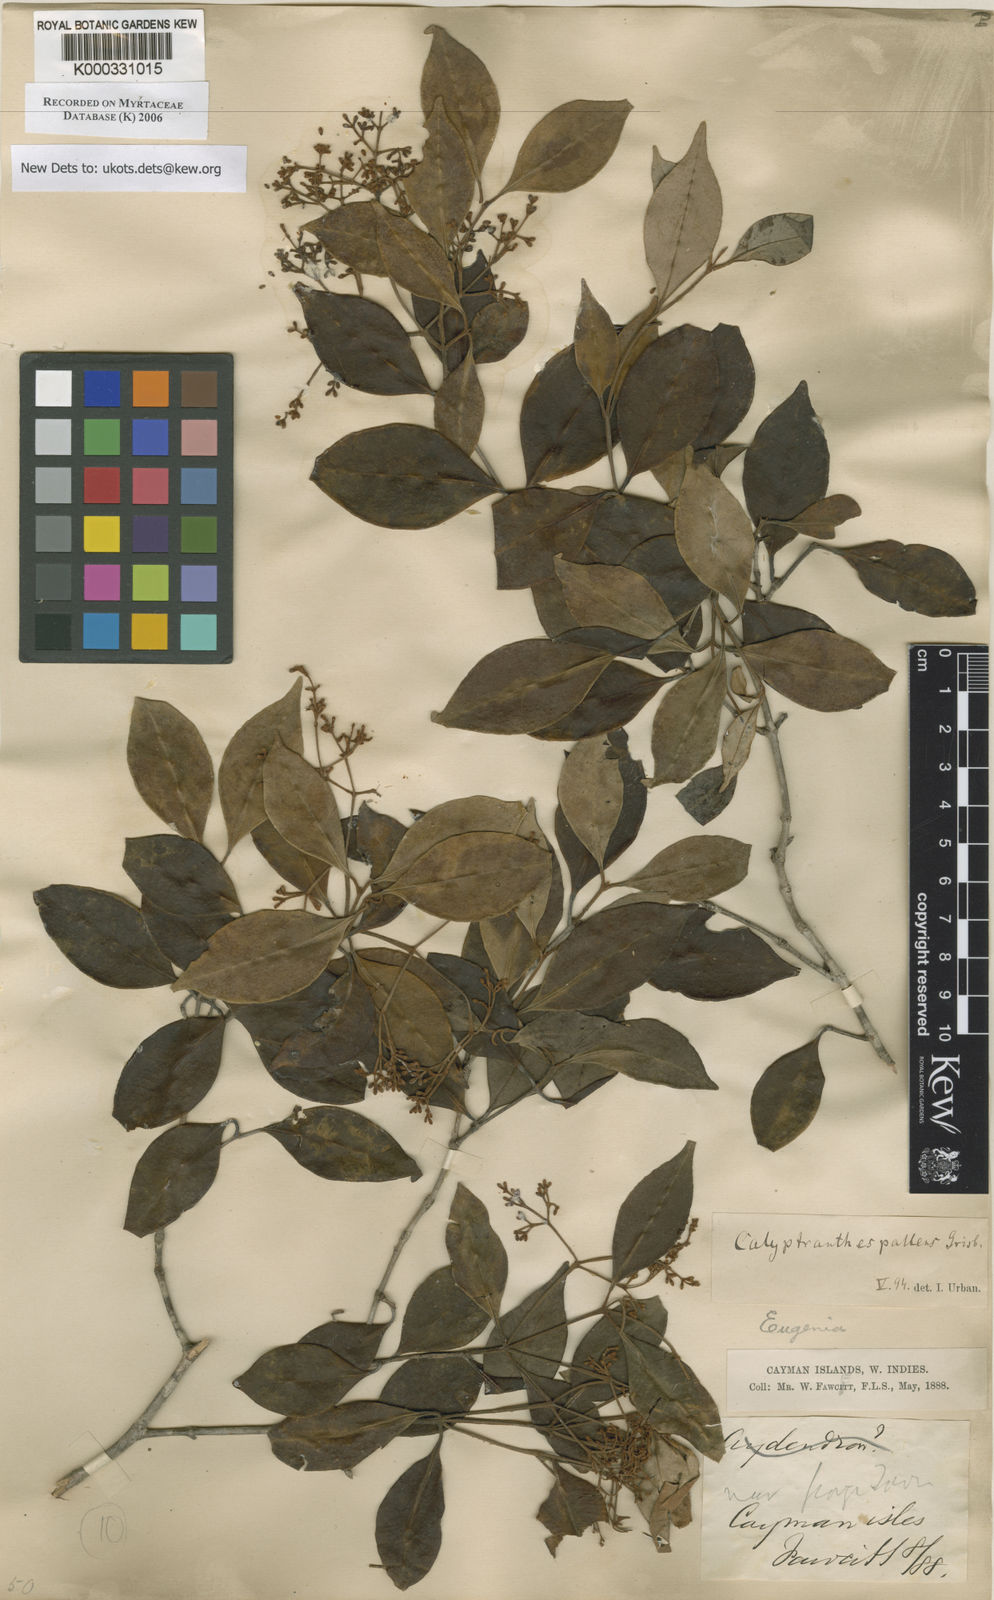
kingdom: Plantae
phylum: Tracheophyta
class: Magnoliopsida
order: Myrtales
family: Myrtaceae
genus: Myrcia
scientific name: Myrcia neopallens
